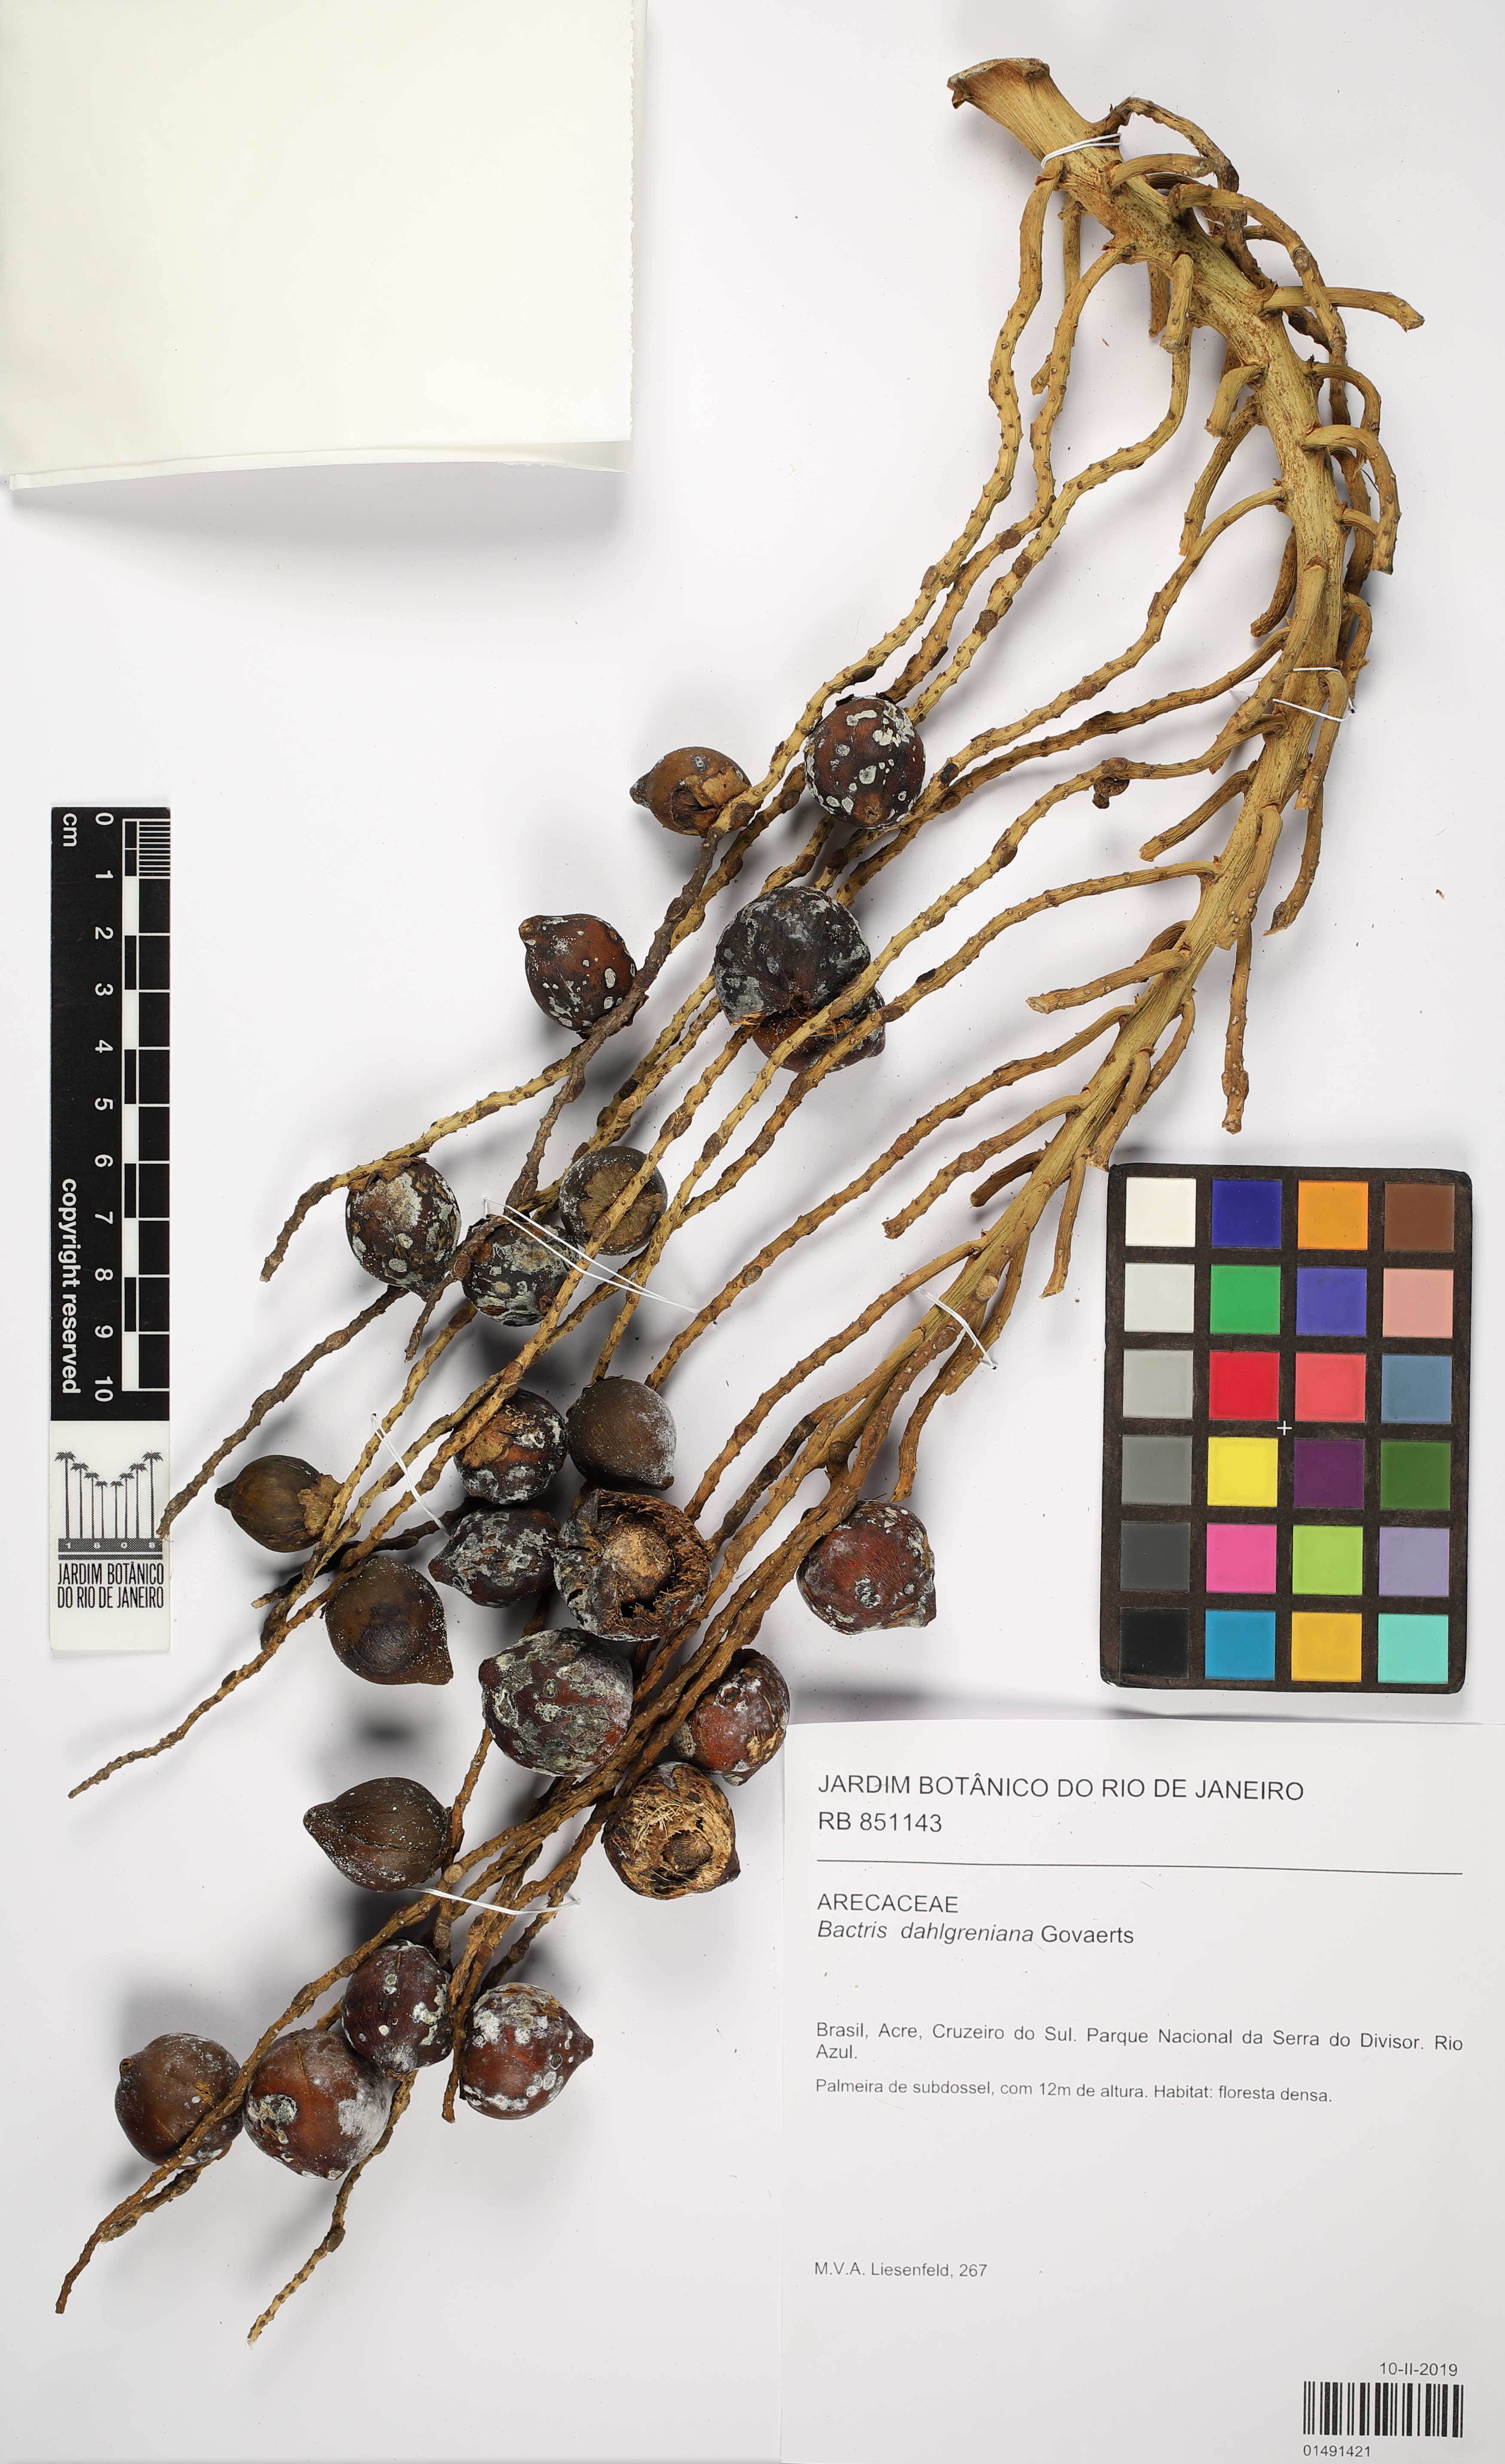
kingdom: Plantae
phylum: Tracheophyta
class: Liliopsida
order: Arecales
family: Arecaceae
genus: Bactris
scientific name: Bactris gasipaes
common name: Peach palm
